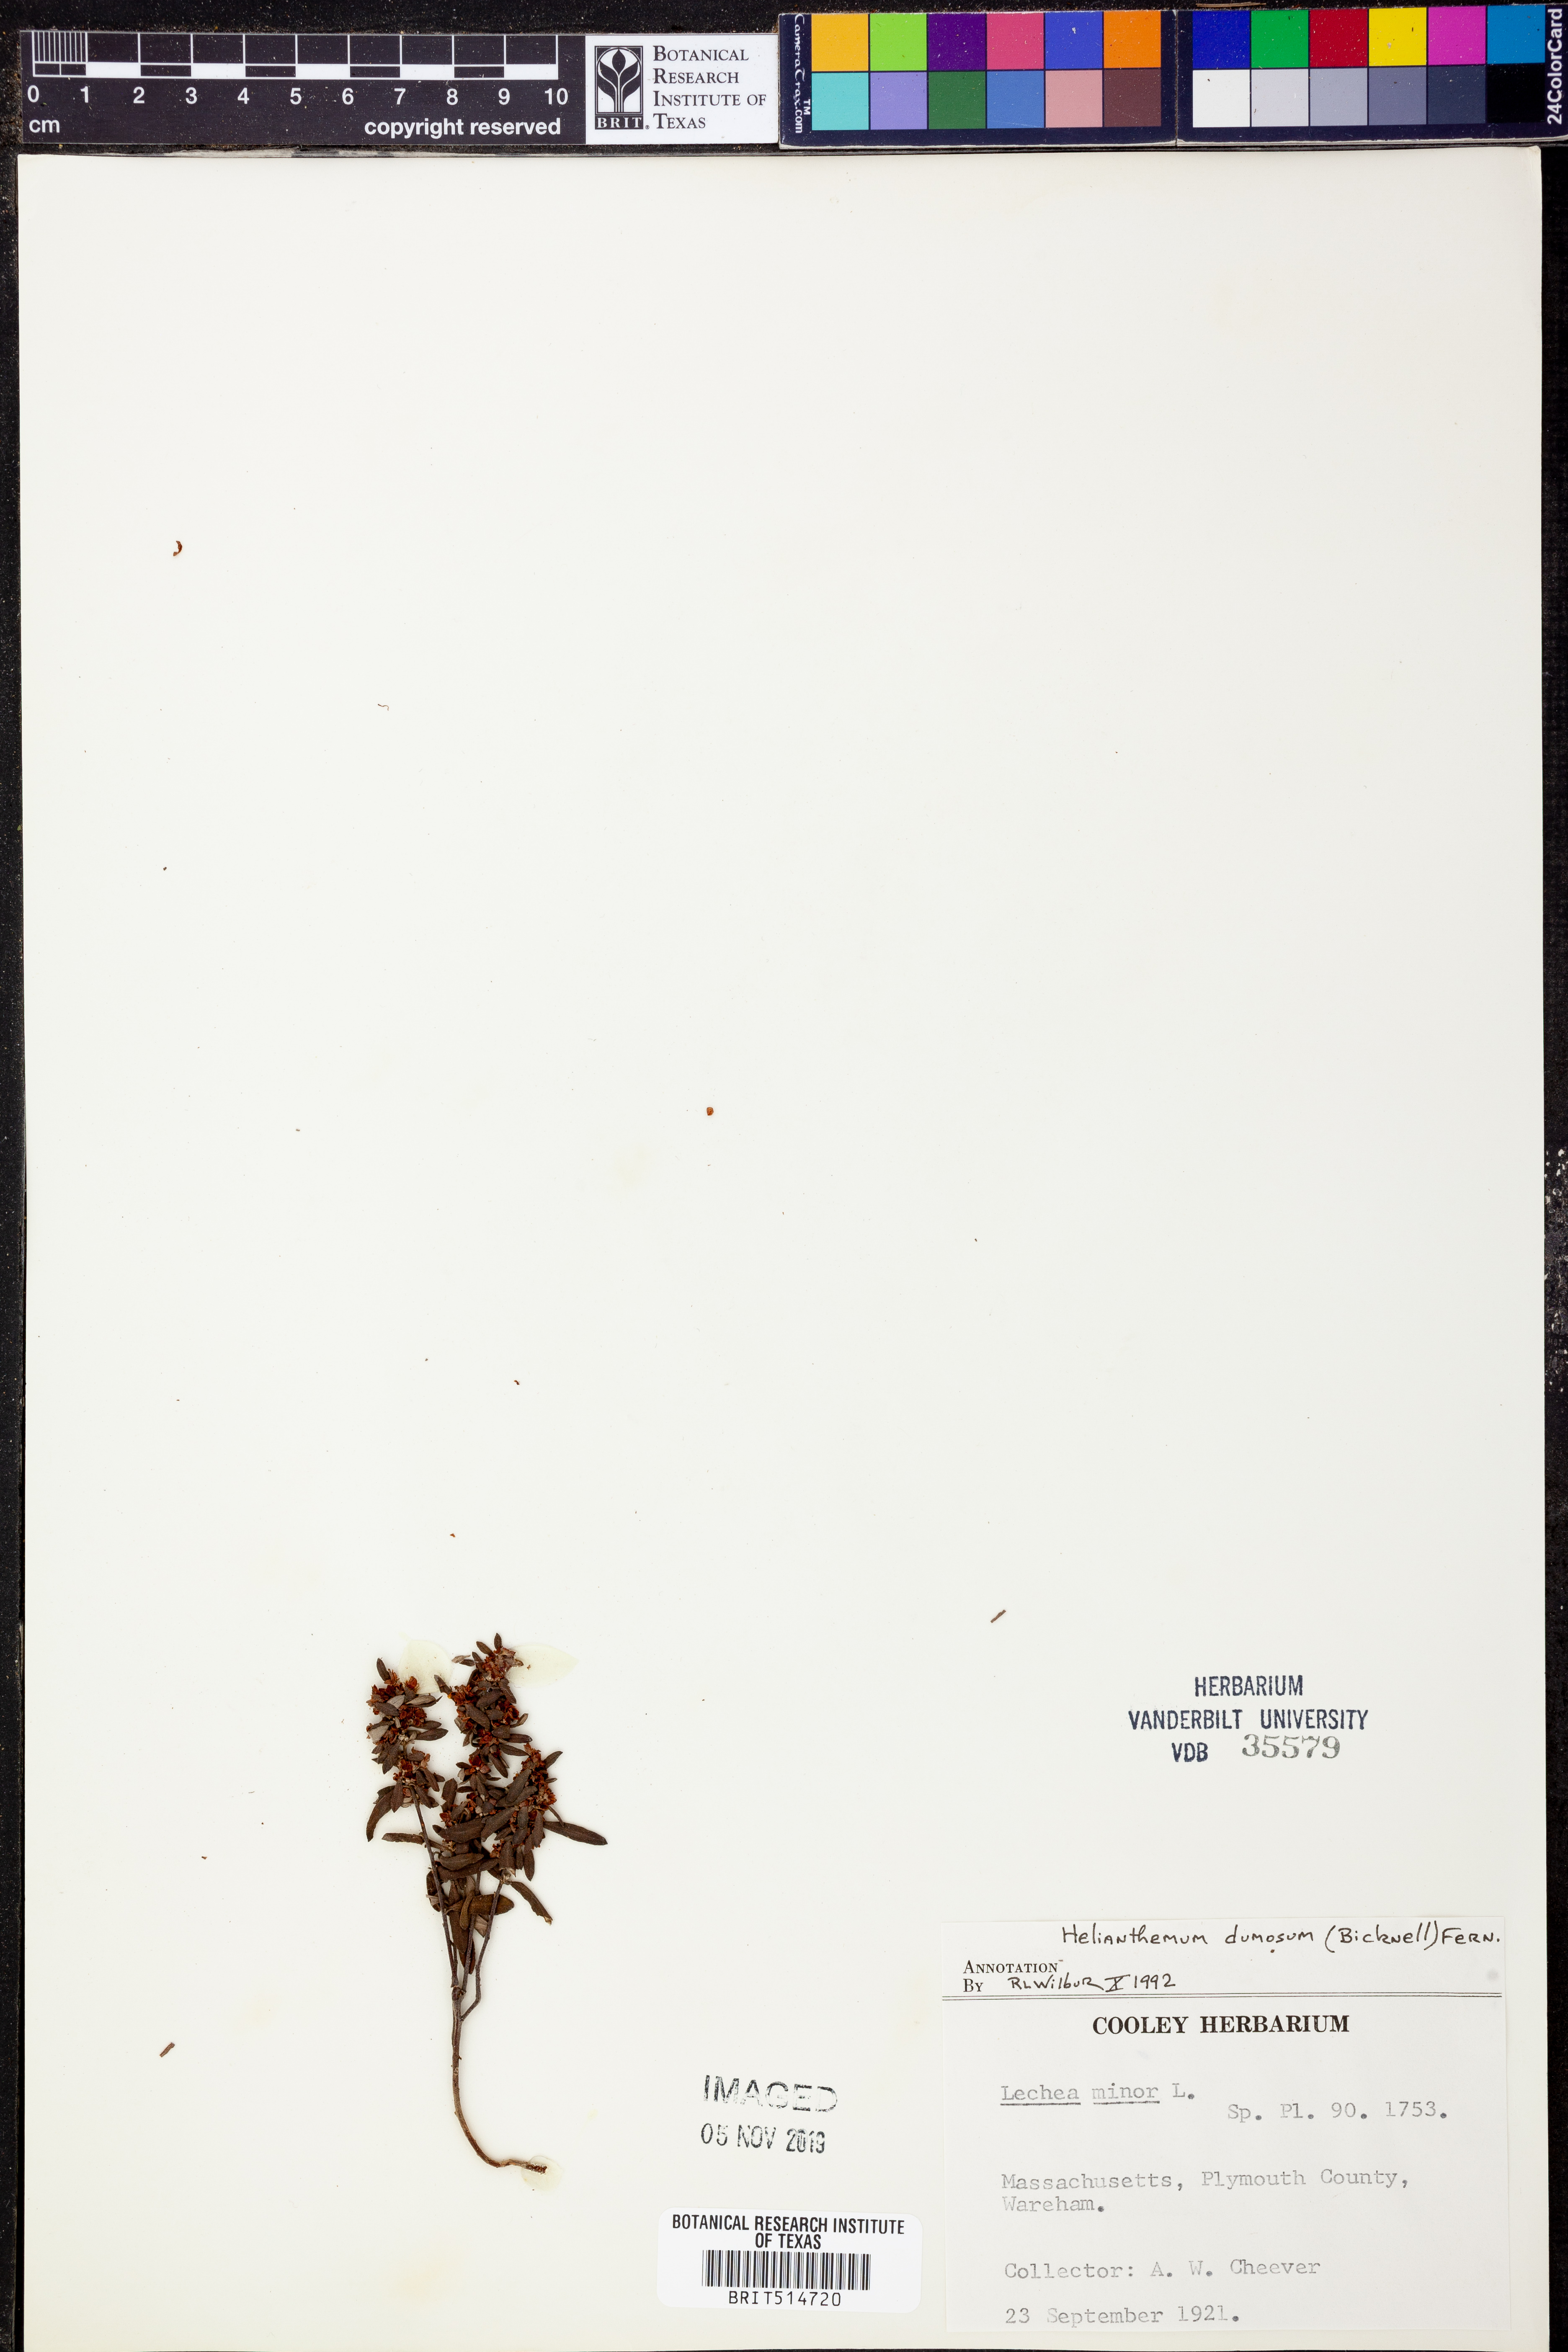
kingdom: Plantae
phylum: Tracheophyta
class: Magnoliopsida
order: Malvales
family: Cistaceae
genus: Crocanthemum
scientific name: Crocanthemum dumosum
